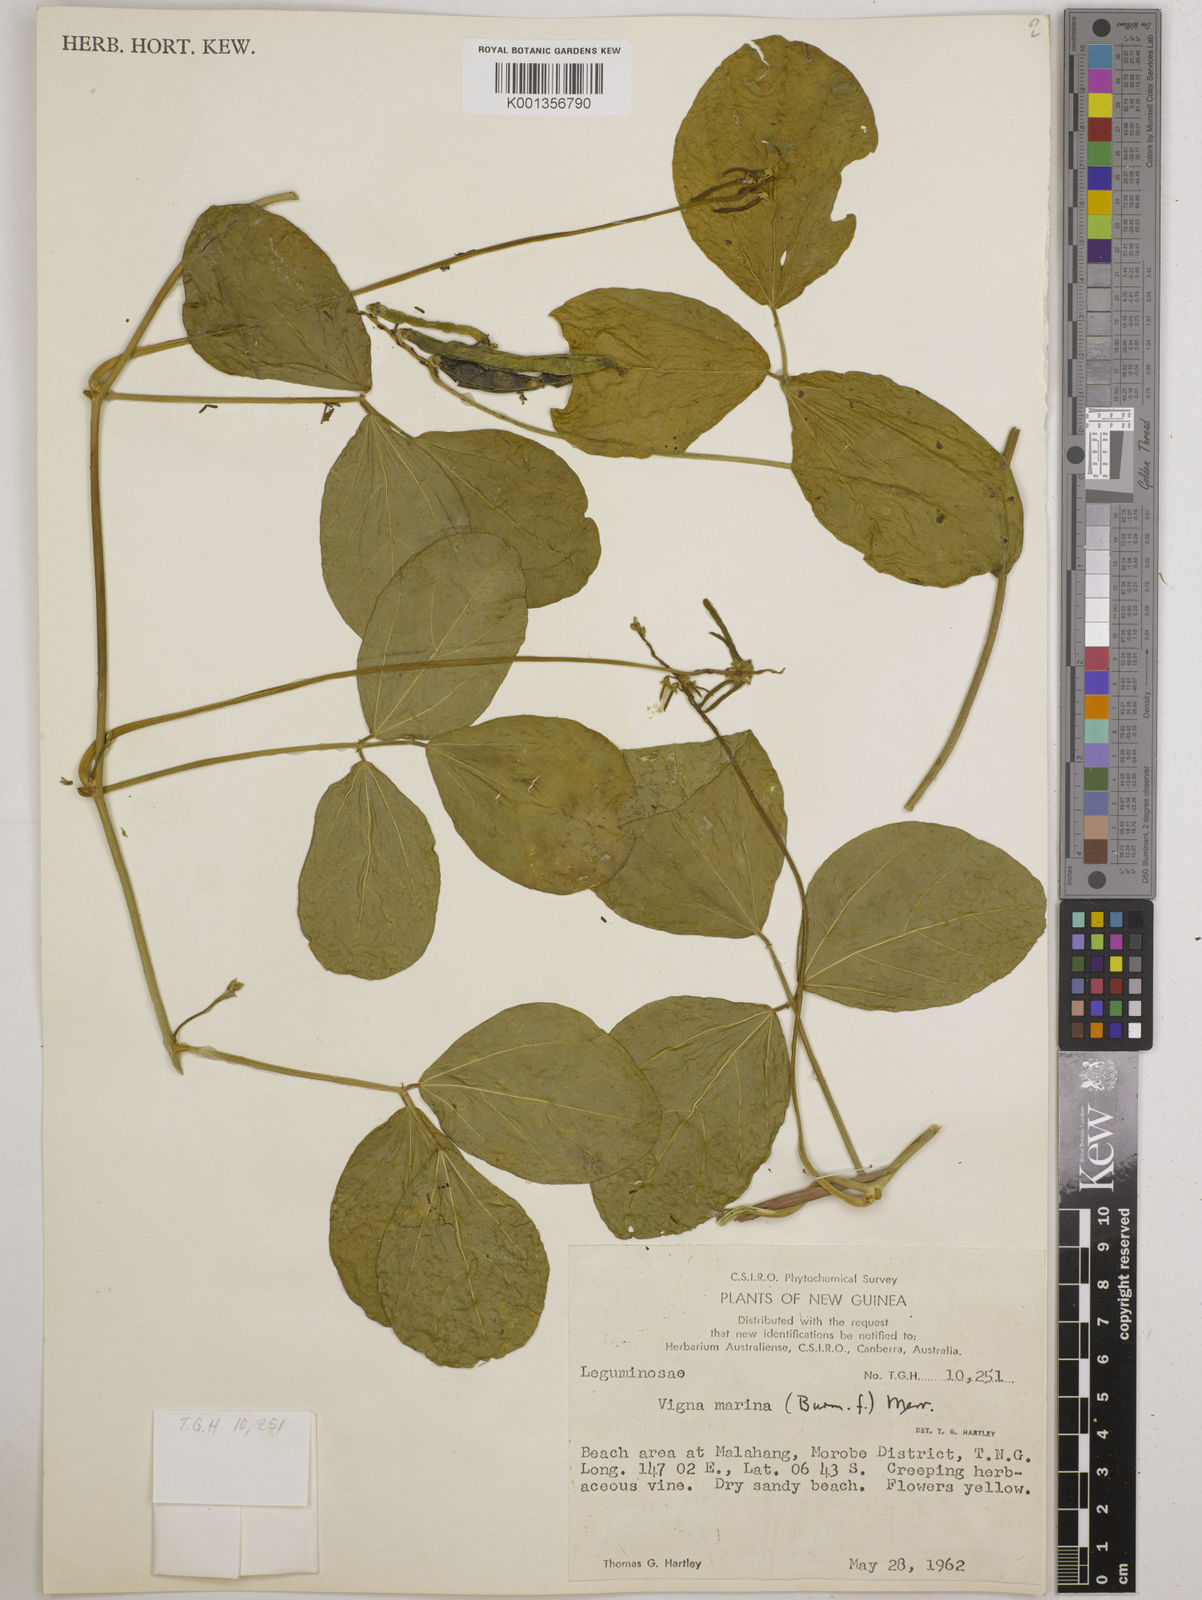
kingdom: Plantae
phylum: Tracheophyta
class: Magnoliopsida
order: Fabales
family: Fabaceae
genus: Vigna
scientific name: Vigna marina
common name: Dune-bean
